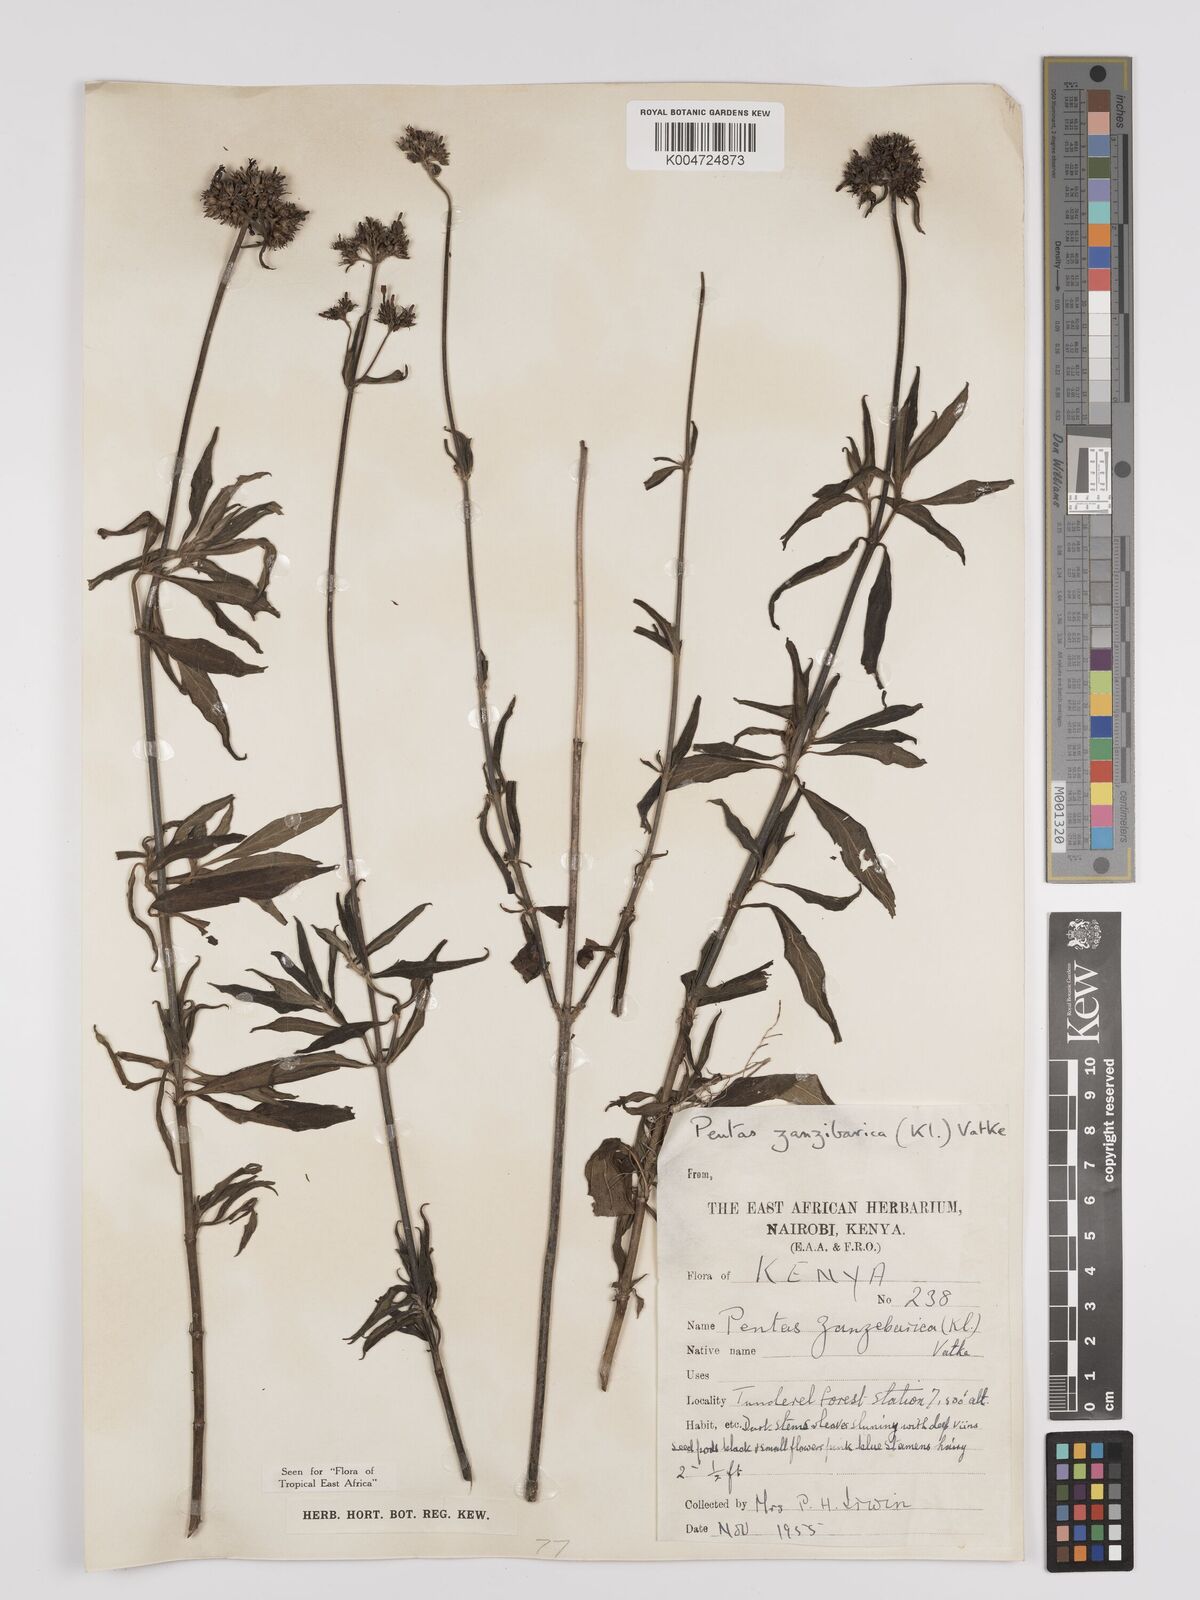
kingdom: Plantae
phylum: Tracheophyta
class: Magnoliopsida
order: Gentianales
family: Rubiaceae
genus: Pentas
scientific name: Pentas zanzibarica
